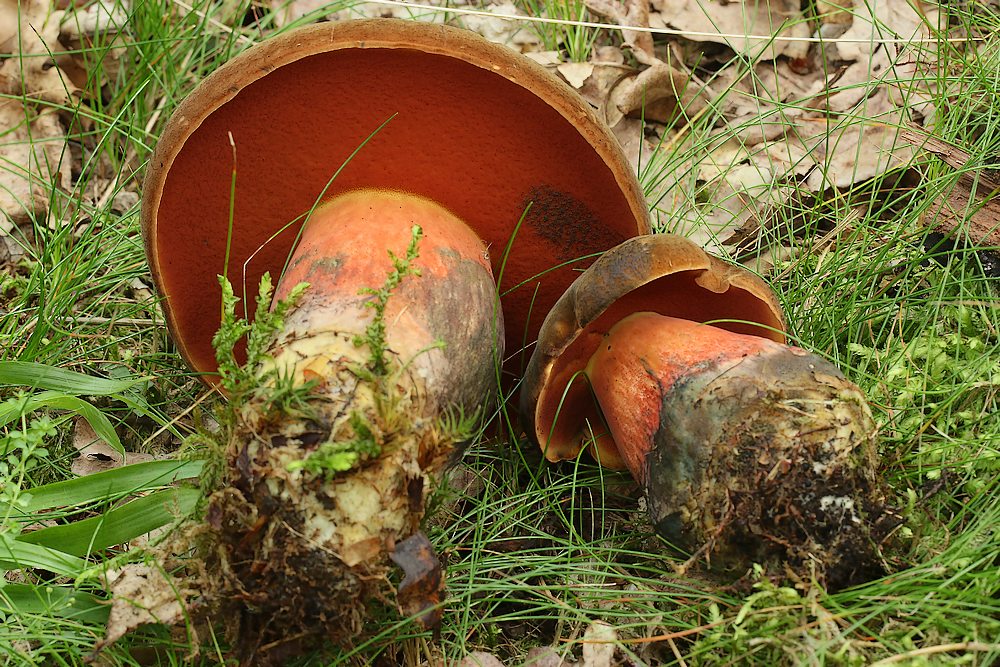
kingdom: Fungi
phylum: Basidiomycota
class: Agaricomycetes
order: Boletales
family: Boletaceae
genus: Neoboletus
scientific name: Neoboletus erythropus
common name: punktstokket indigorørhat
